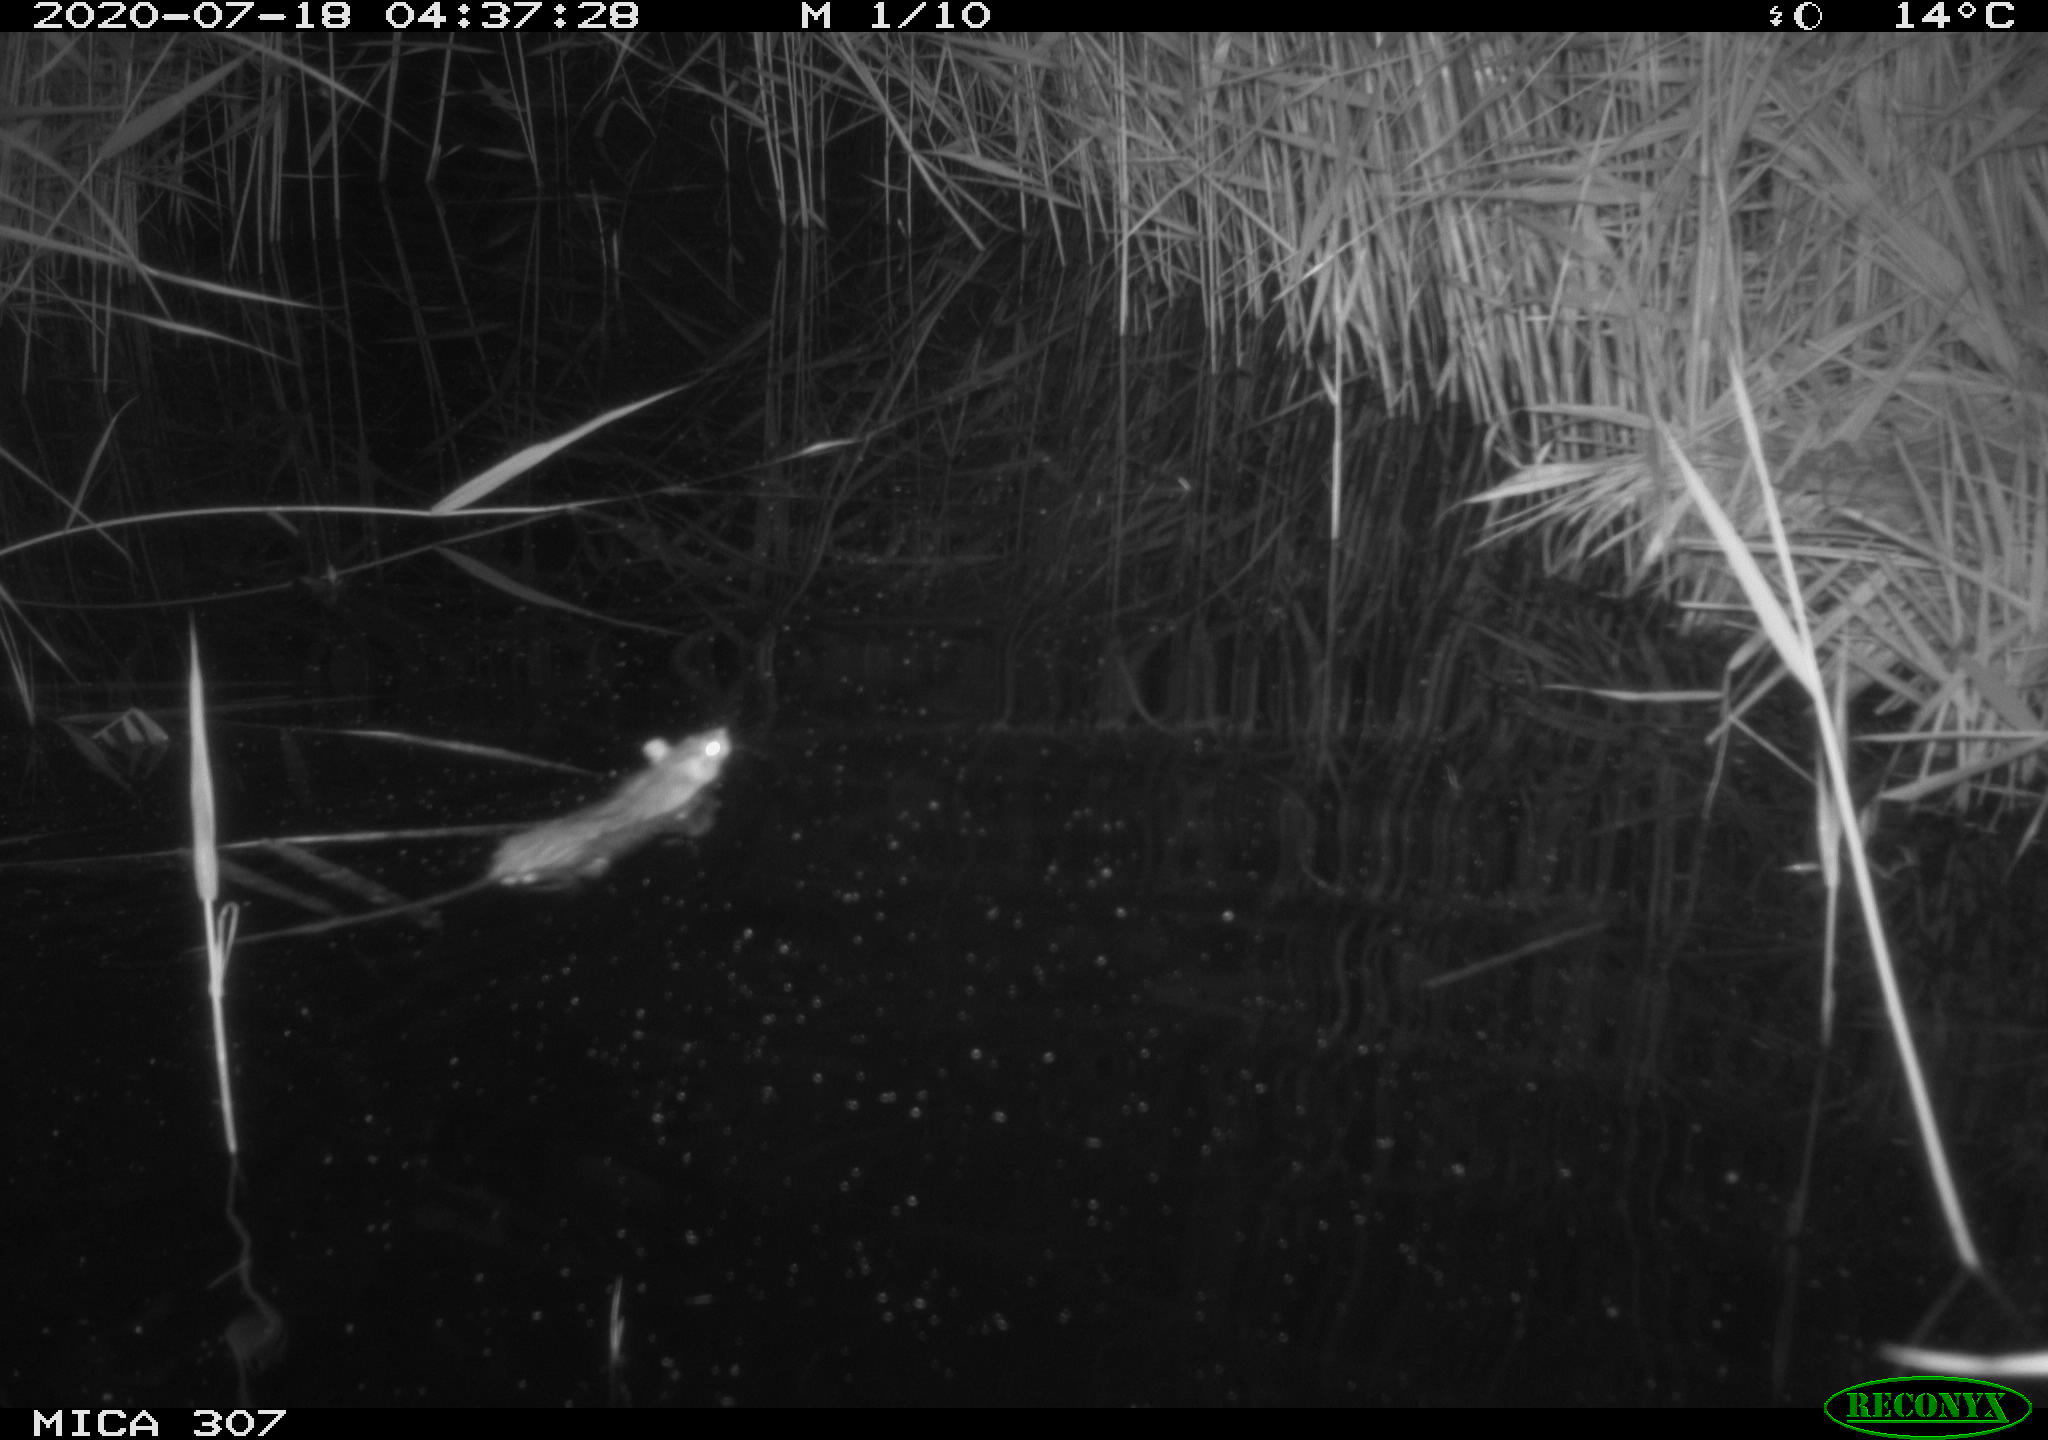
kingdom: Animalia
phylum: Chordata
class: Mammalia
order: Rodentia
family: Muridae
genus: Rattus
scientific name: Rattus norvegicus
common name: Brown rat
